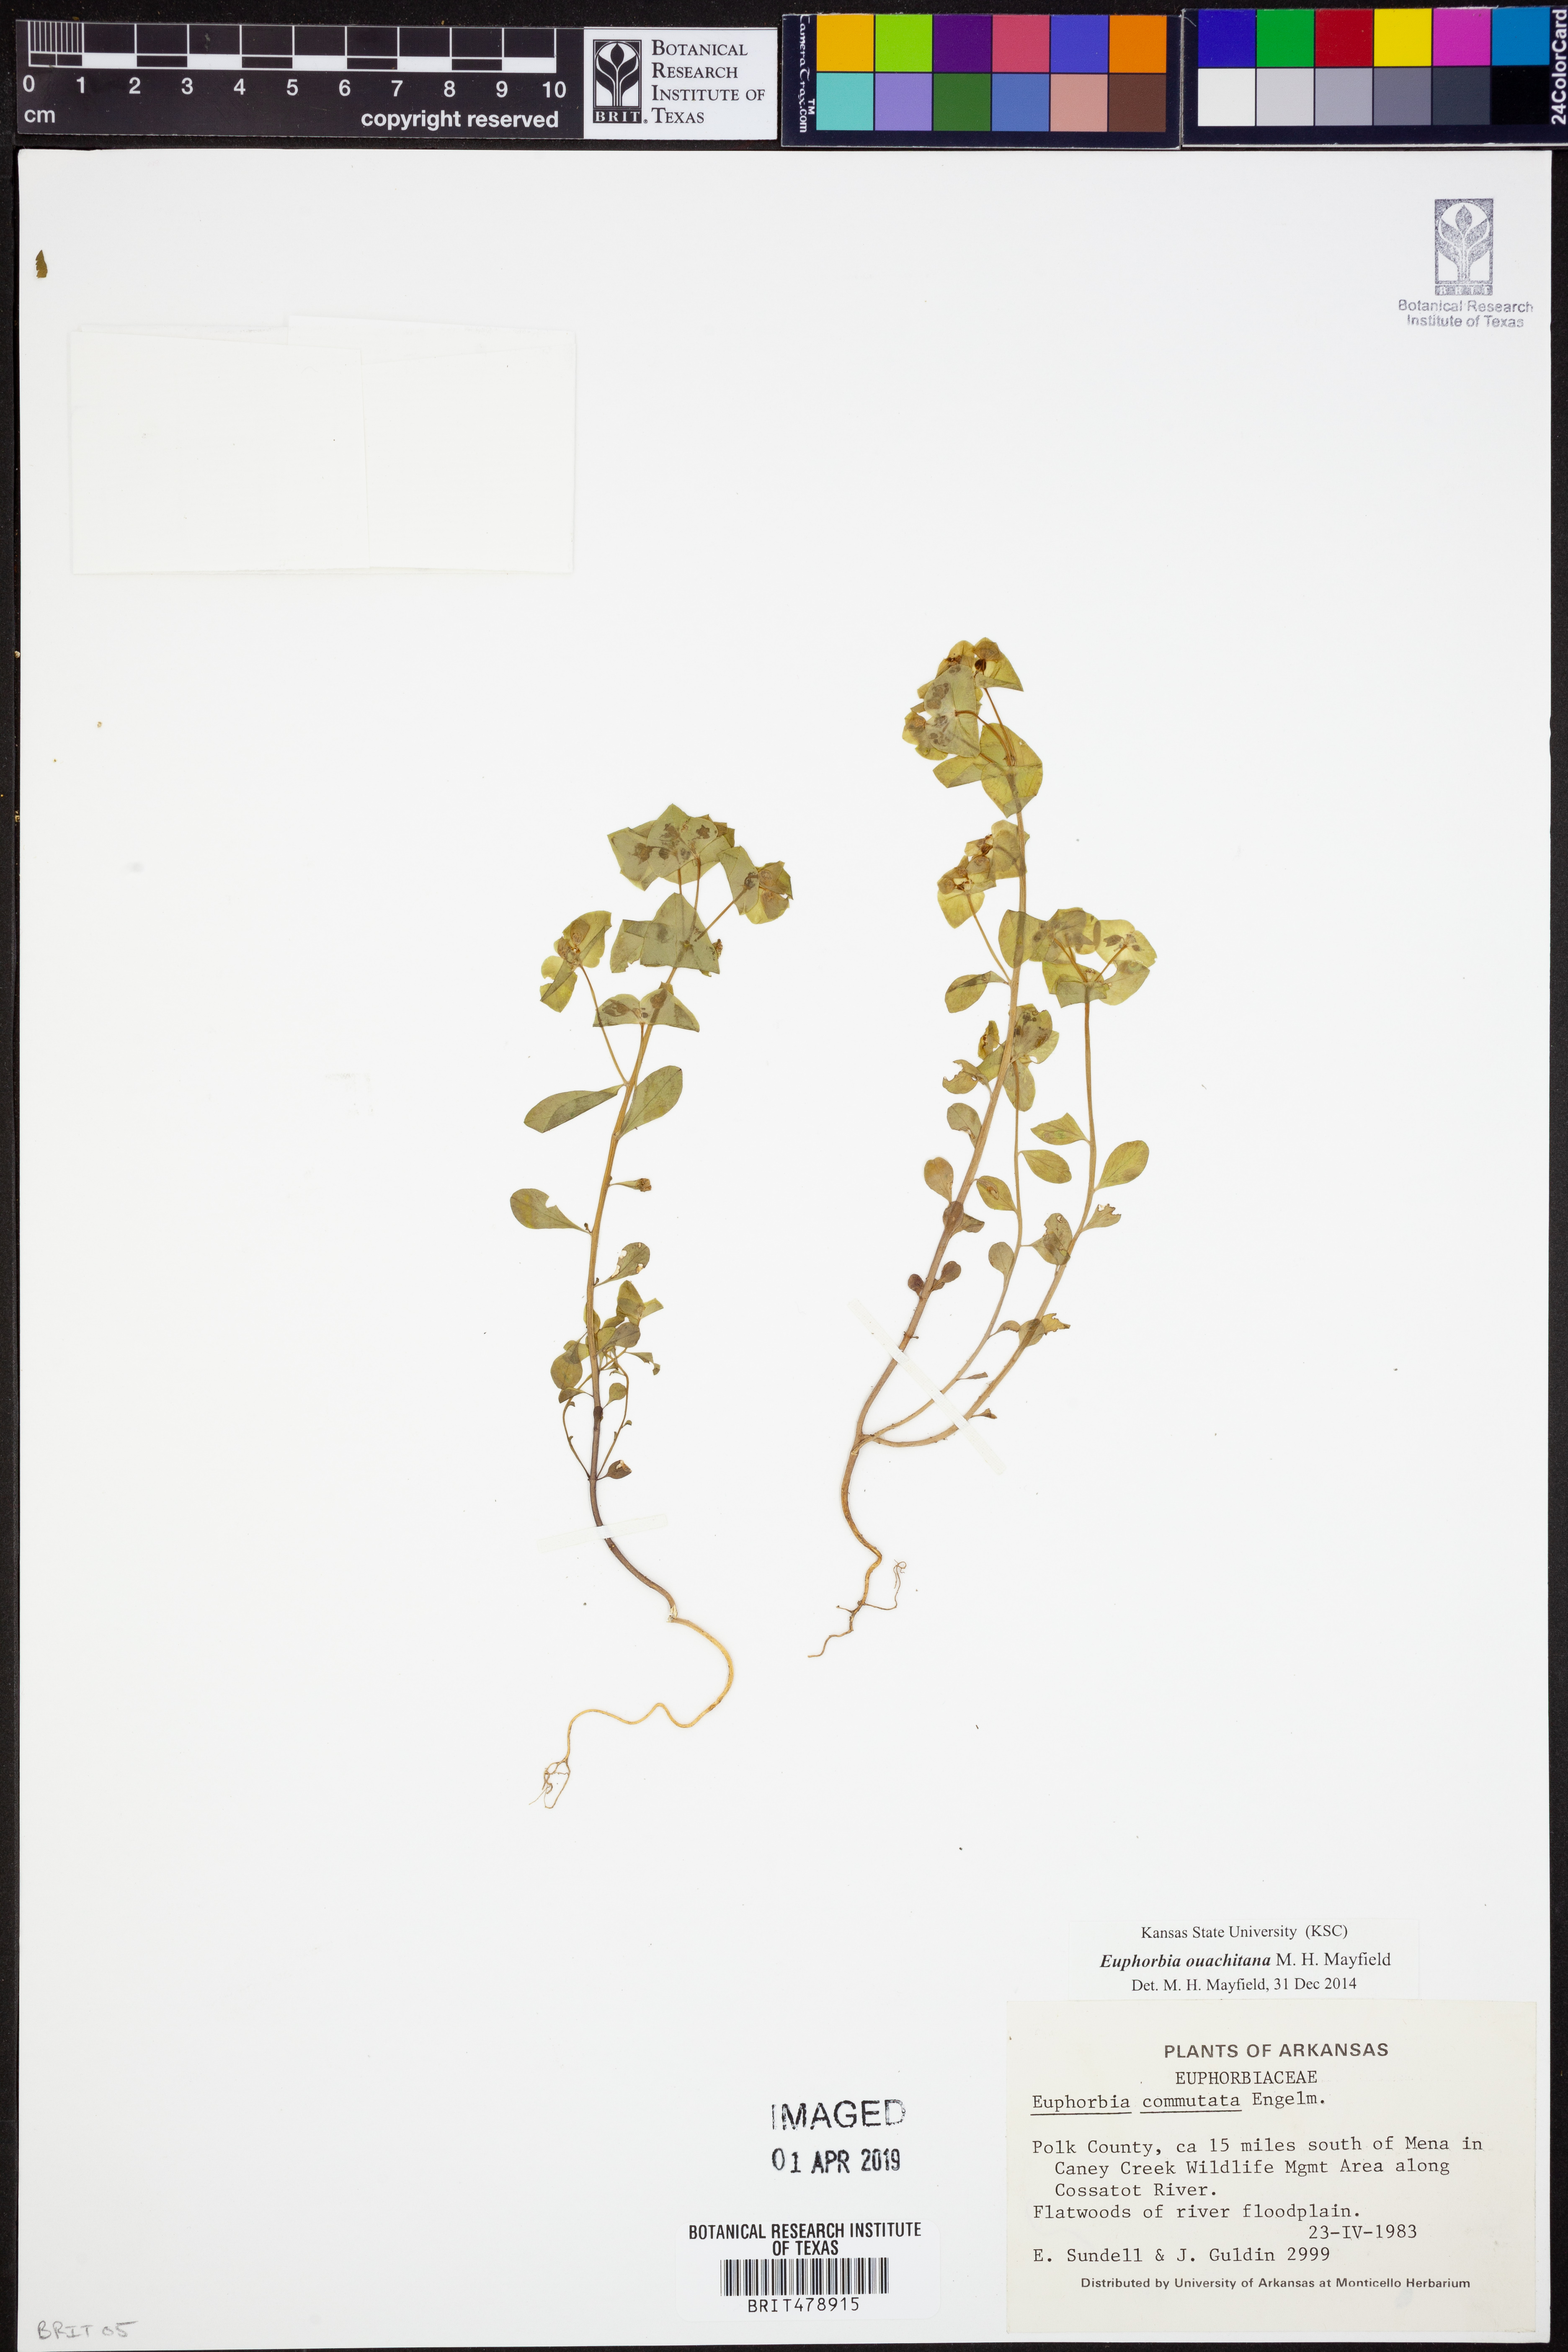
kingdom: Plantae
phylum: Tracheophyta
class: Magnoliopsida
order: Malpighiales
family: Euphorbiaceae
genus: Euphorbia
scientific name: Euphorbia ouachitana
